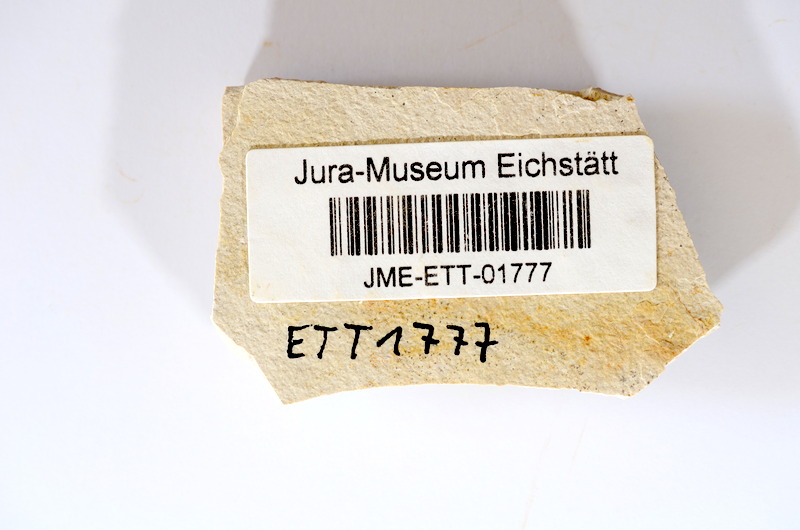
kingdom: Animalia
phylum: Chordata
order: Salmoniformes
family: Orthogonikleithridae
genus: Orthogonikleithrus
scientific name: Orthogonikleithrus hoelli
